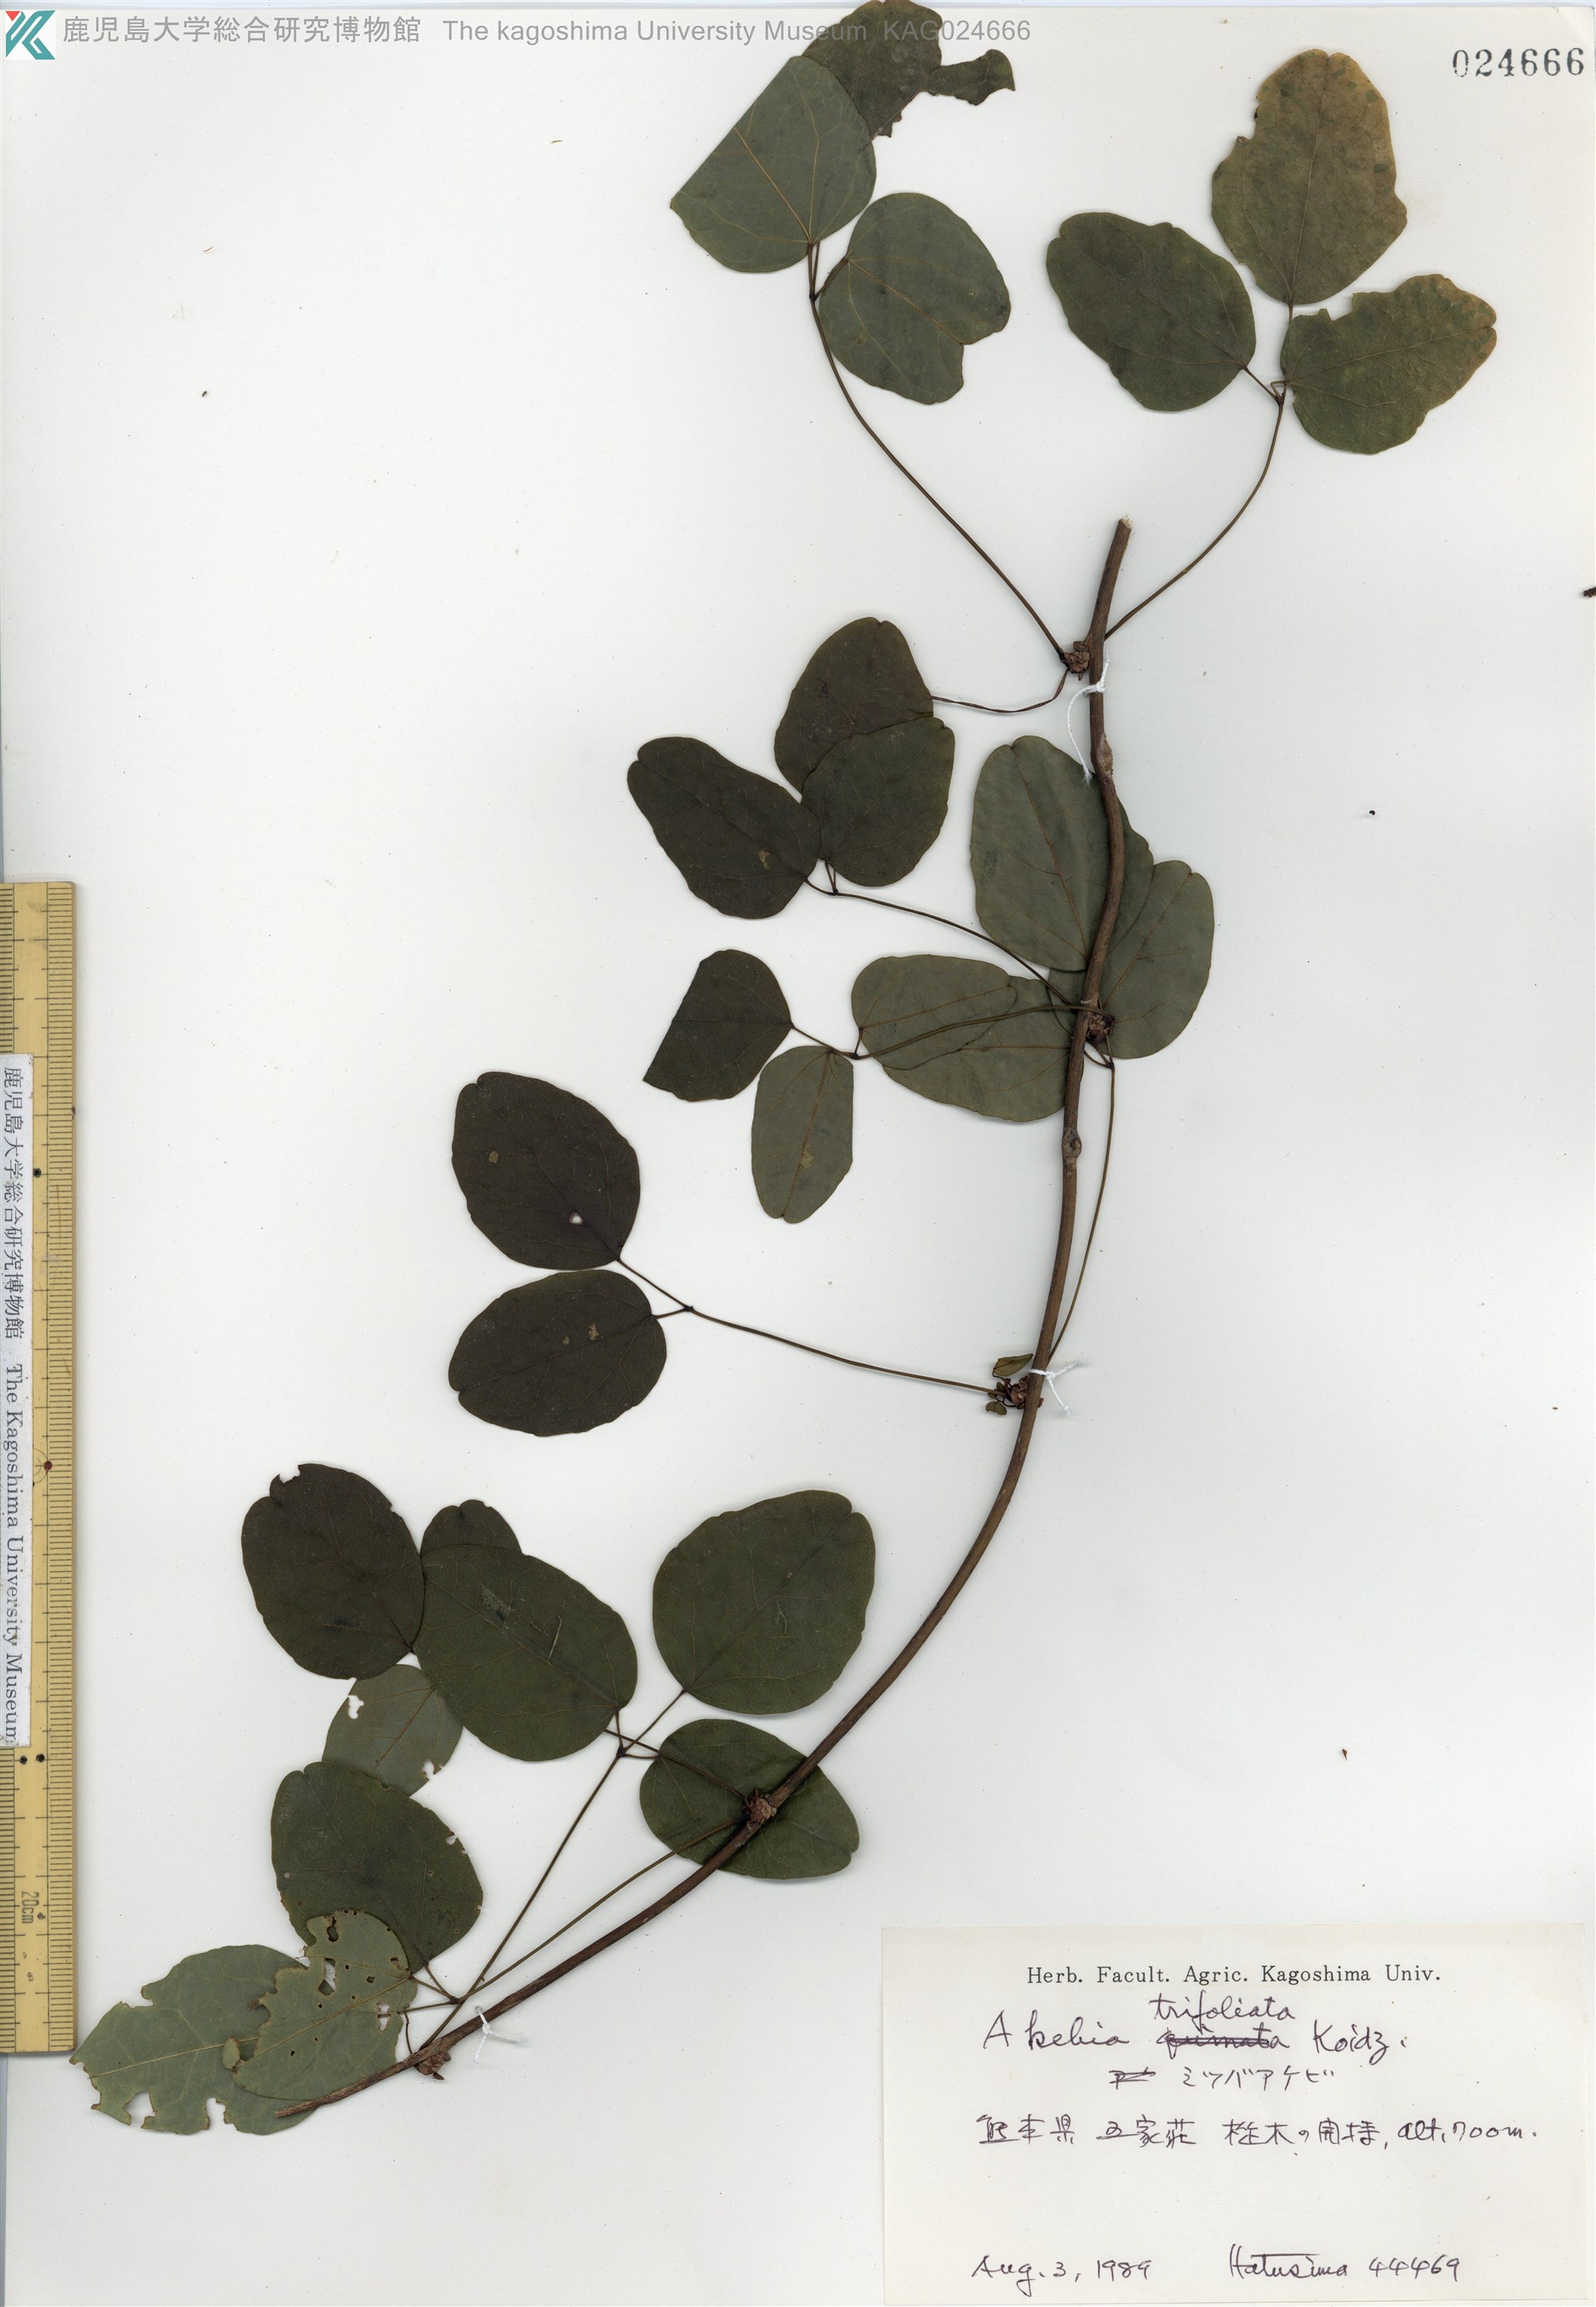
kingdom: Plantae
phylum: Tracheophyta
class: Magnoliopsida
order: Ranunculales
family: Lardizabalaceae
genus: Akebia
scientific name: Akebia trifoliata
